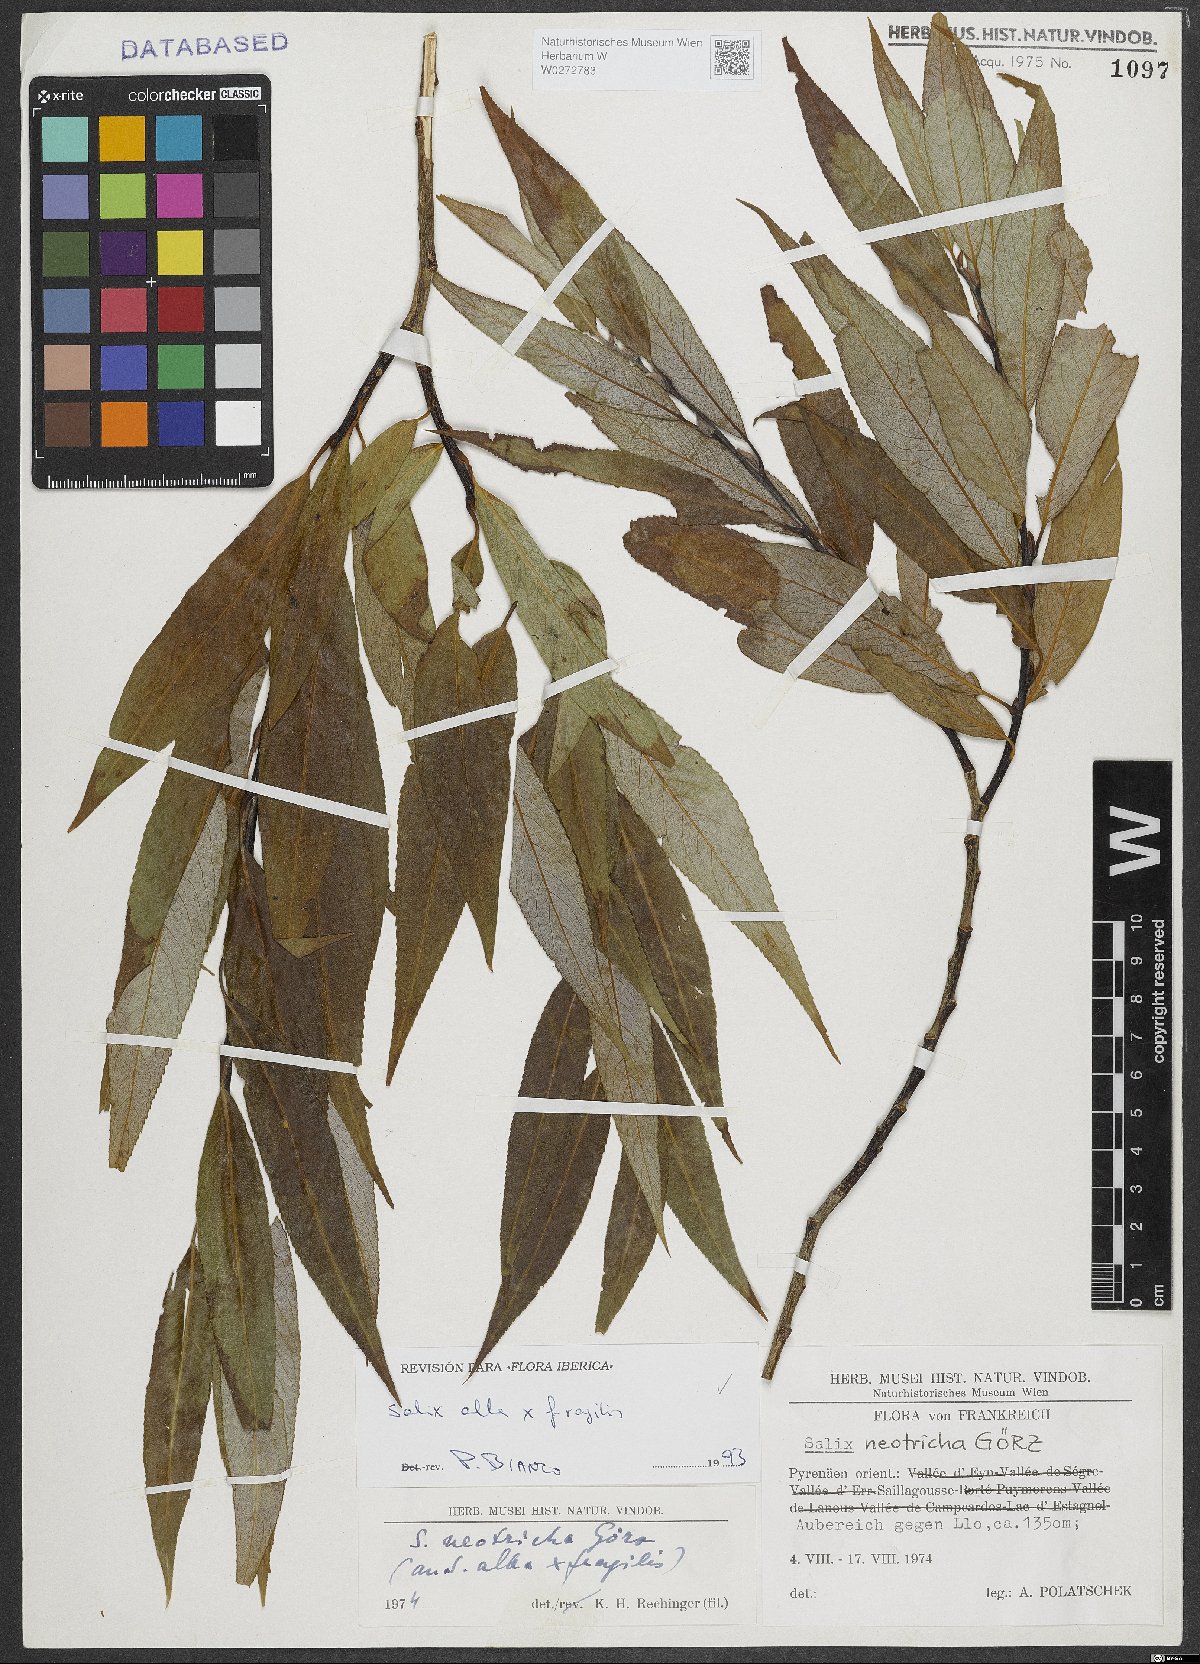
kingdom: Plantae
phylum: Tracheophyta
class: Magnoliopsida
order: Malpighiales
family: Salicaceae
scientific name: Salicaceae
